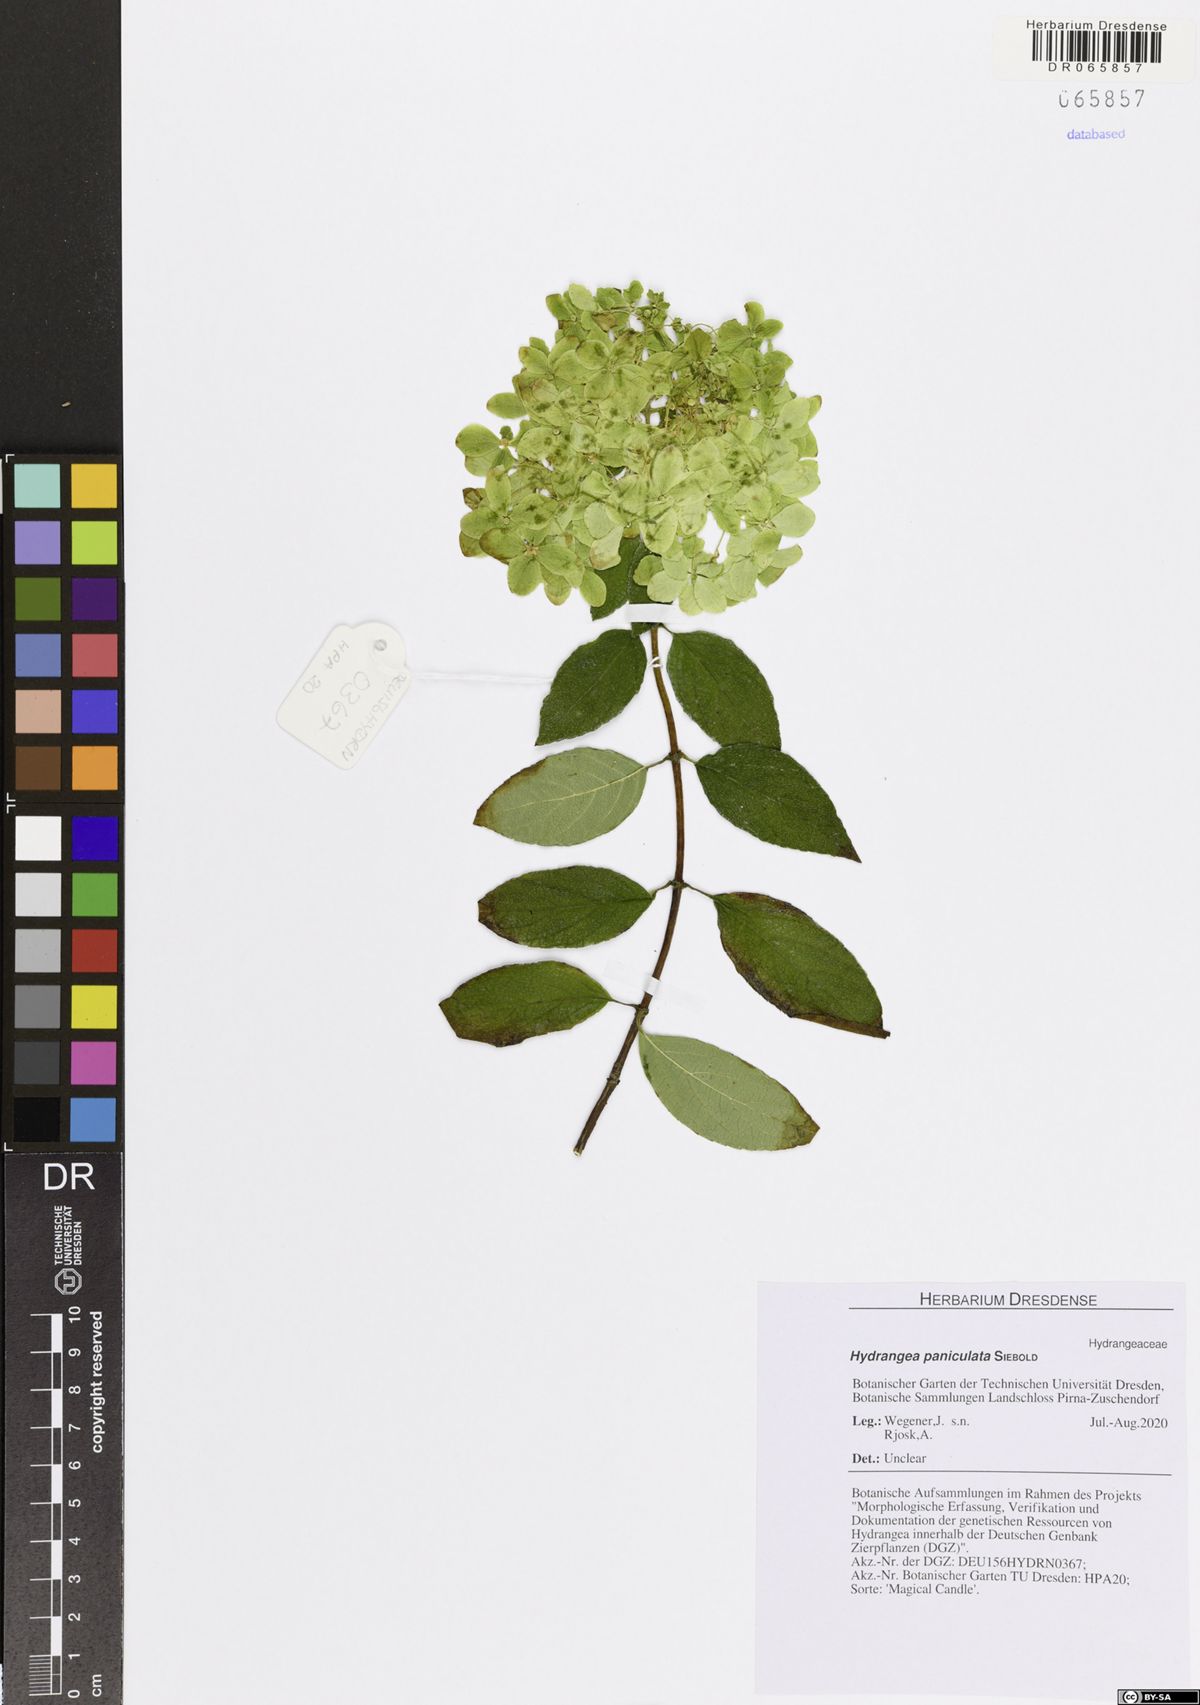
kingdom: Plantae
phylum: Tracheophyta
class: Magnoliopsida
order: Cornales
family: Hydrangeaceae
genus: Hydrangea
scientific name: Hydrangea paniculata
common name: Panicled hydrangea
